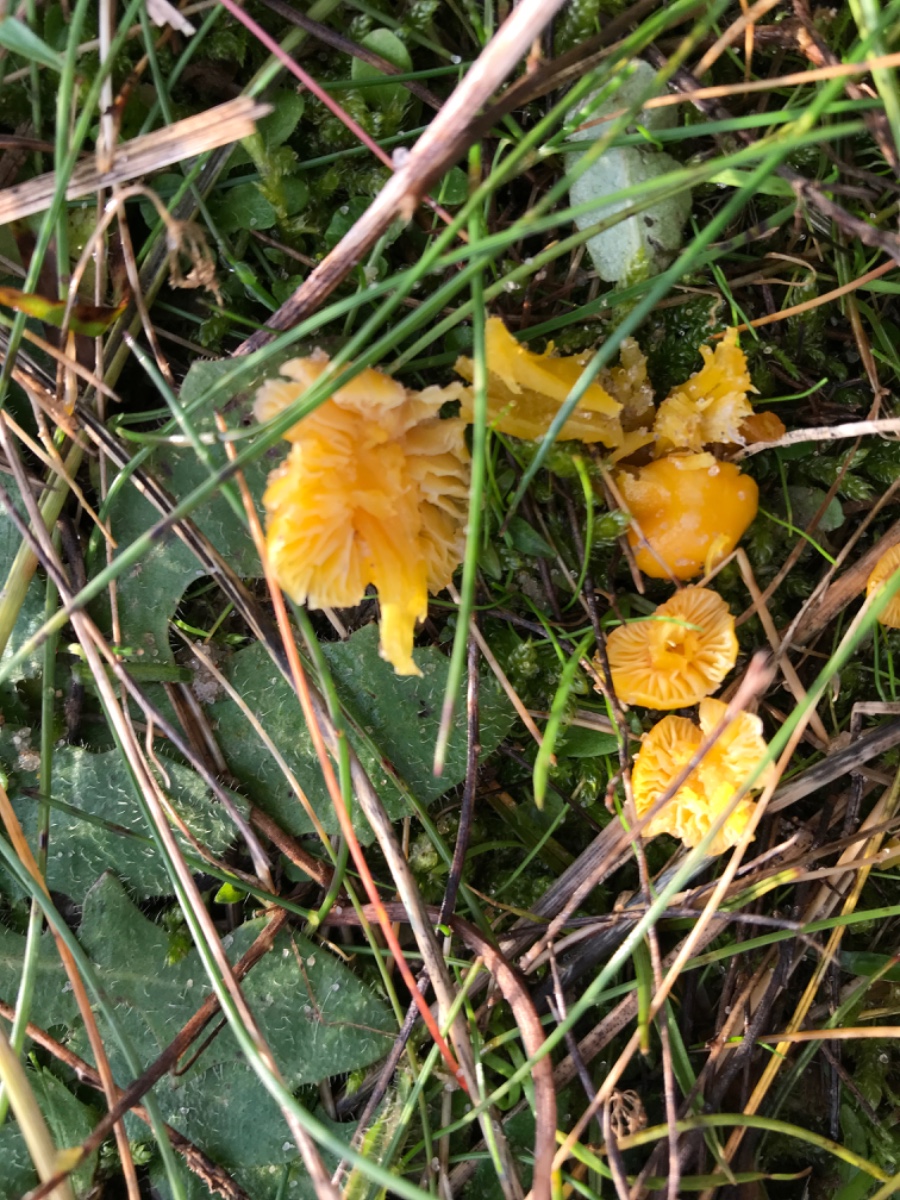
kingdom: Fungi
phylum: Basidiomycota
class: Agaricomycetes
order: Agaricales
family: Hygrophoraceae
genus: Hygrocybe
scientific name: Hygrocybe ceracea
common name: voksgul vokshat
